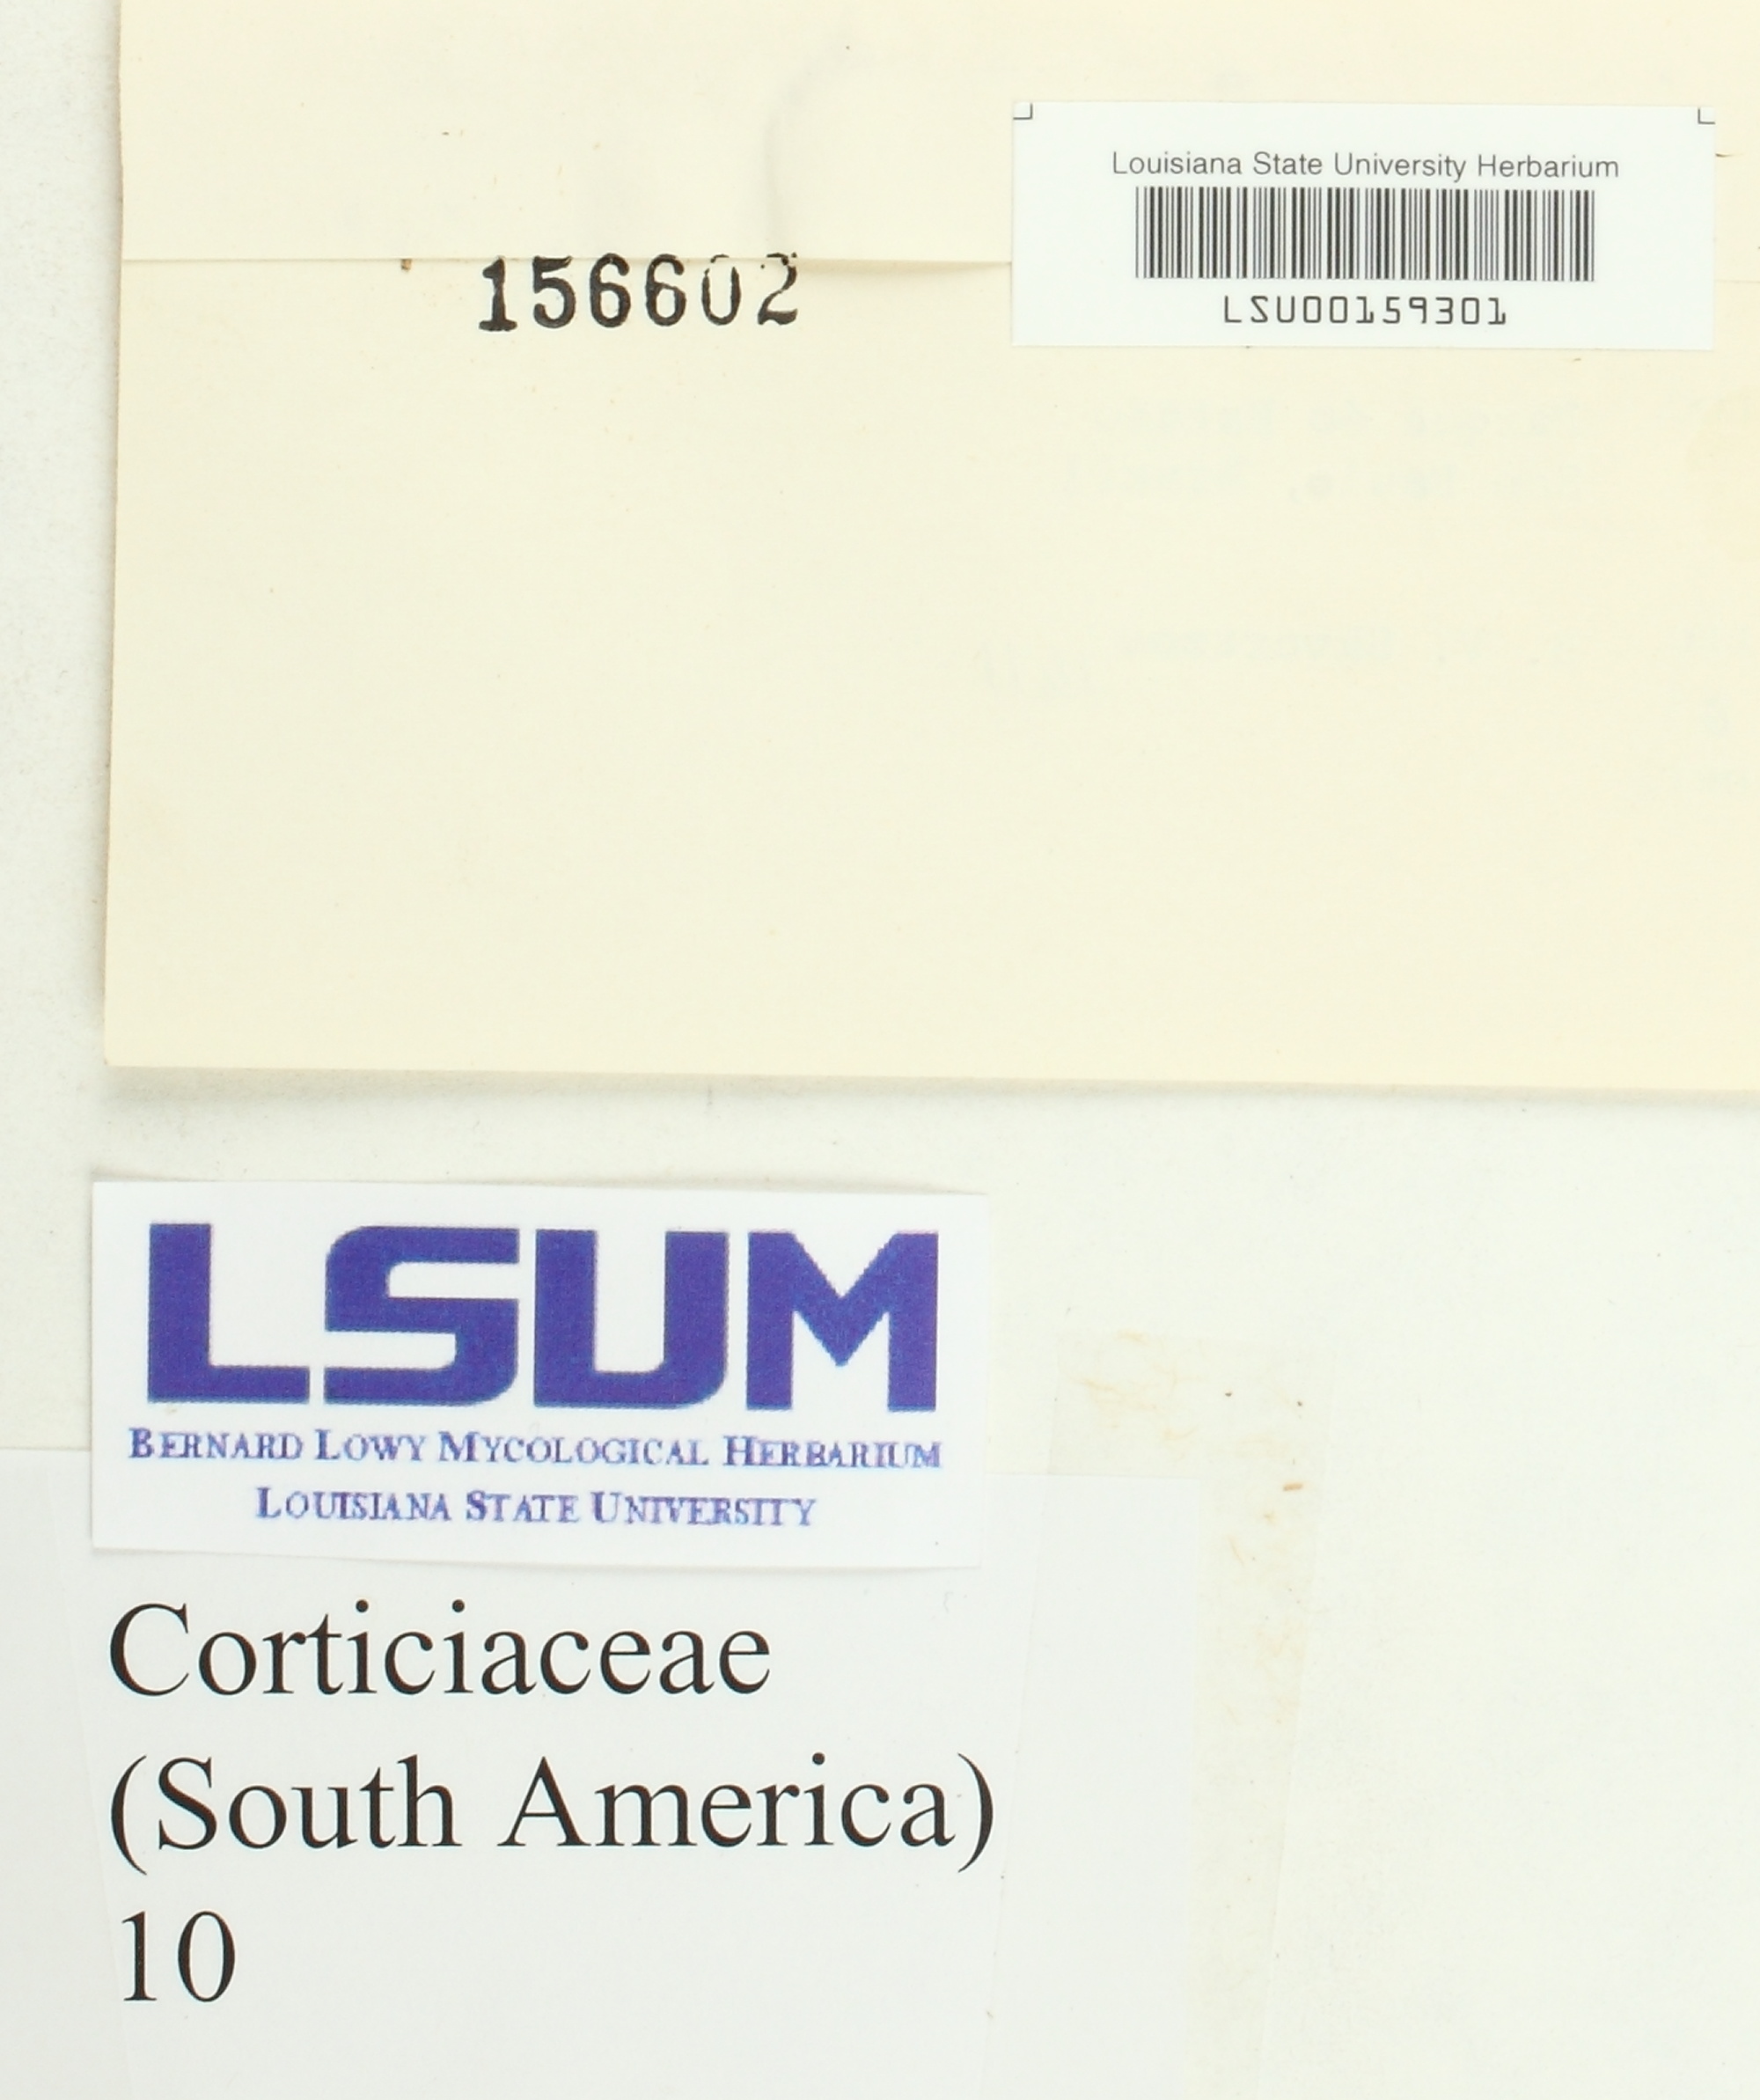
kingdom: Fungi
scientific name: Fungi
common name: Fungi
